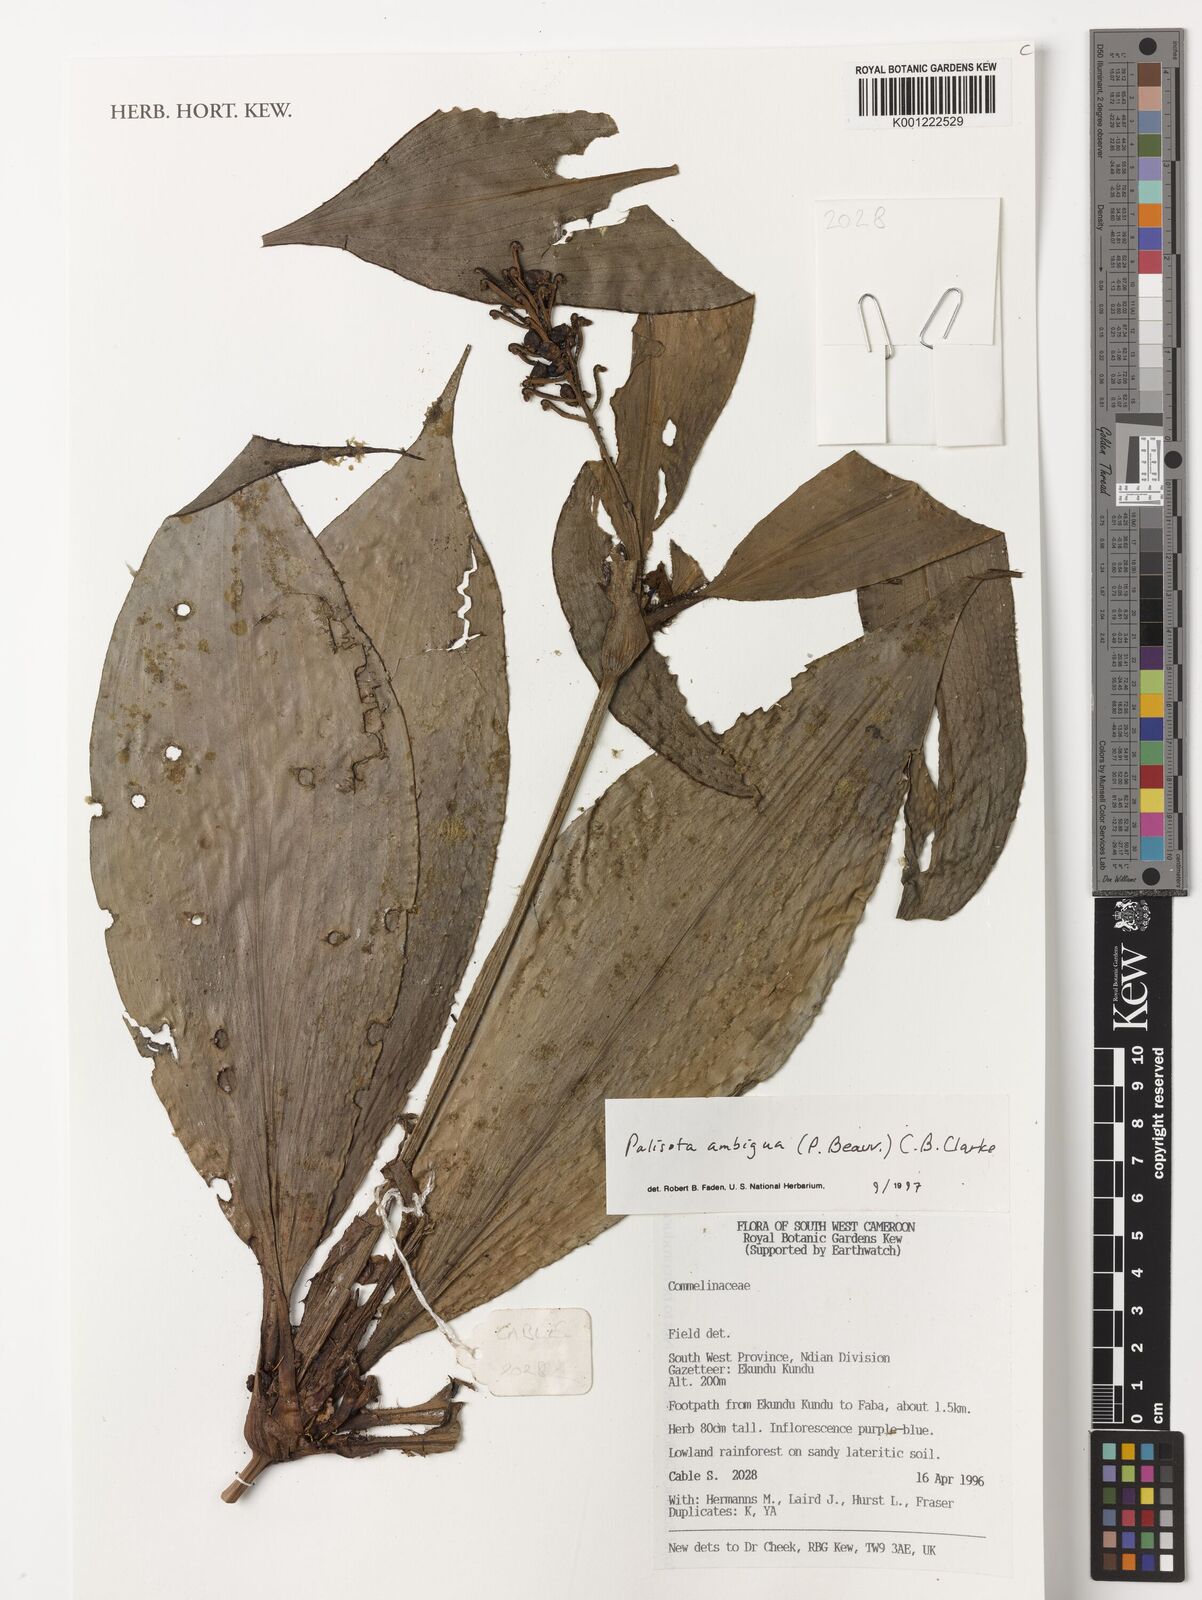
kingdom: Plantae
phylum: Tracheophyta
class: Liliopsida
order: Commelinales
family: Commelinaceae
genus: Palisota
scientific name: Palisota ambigua
